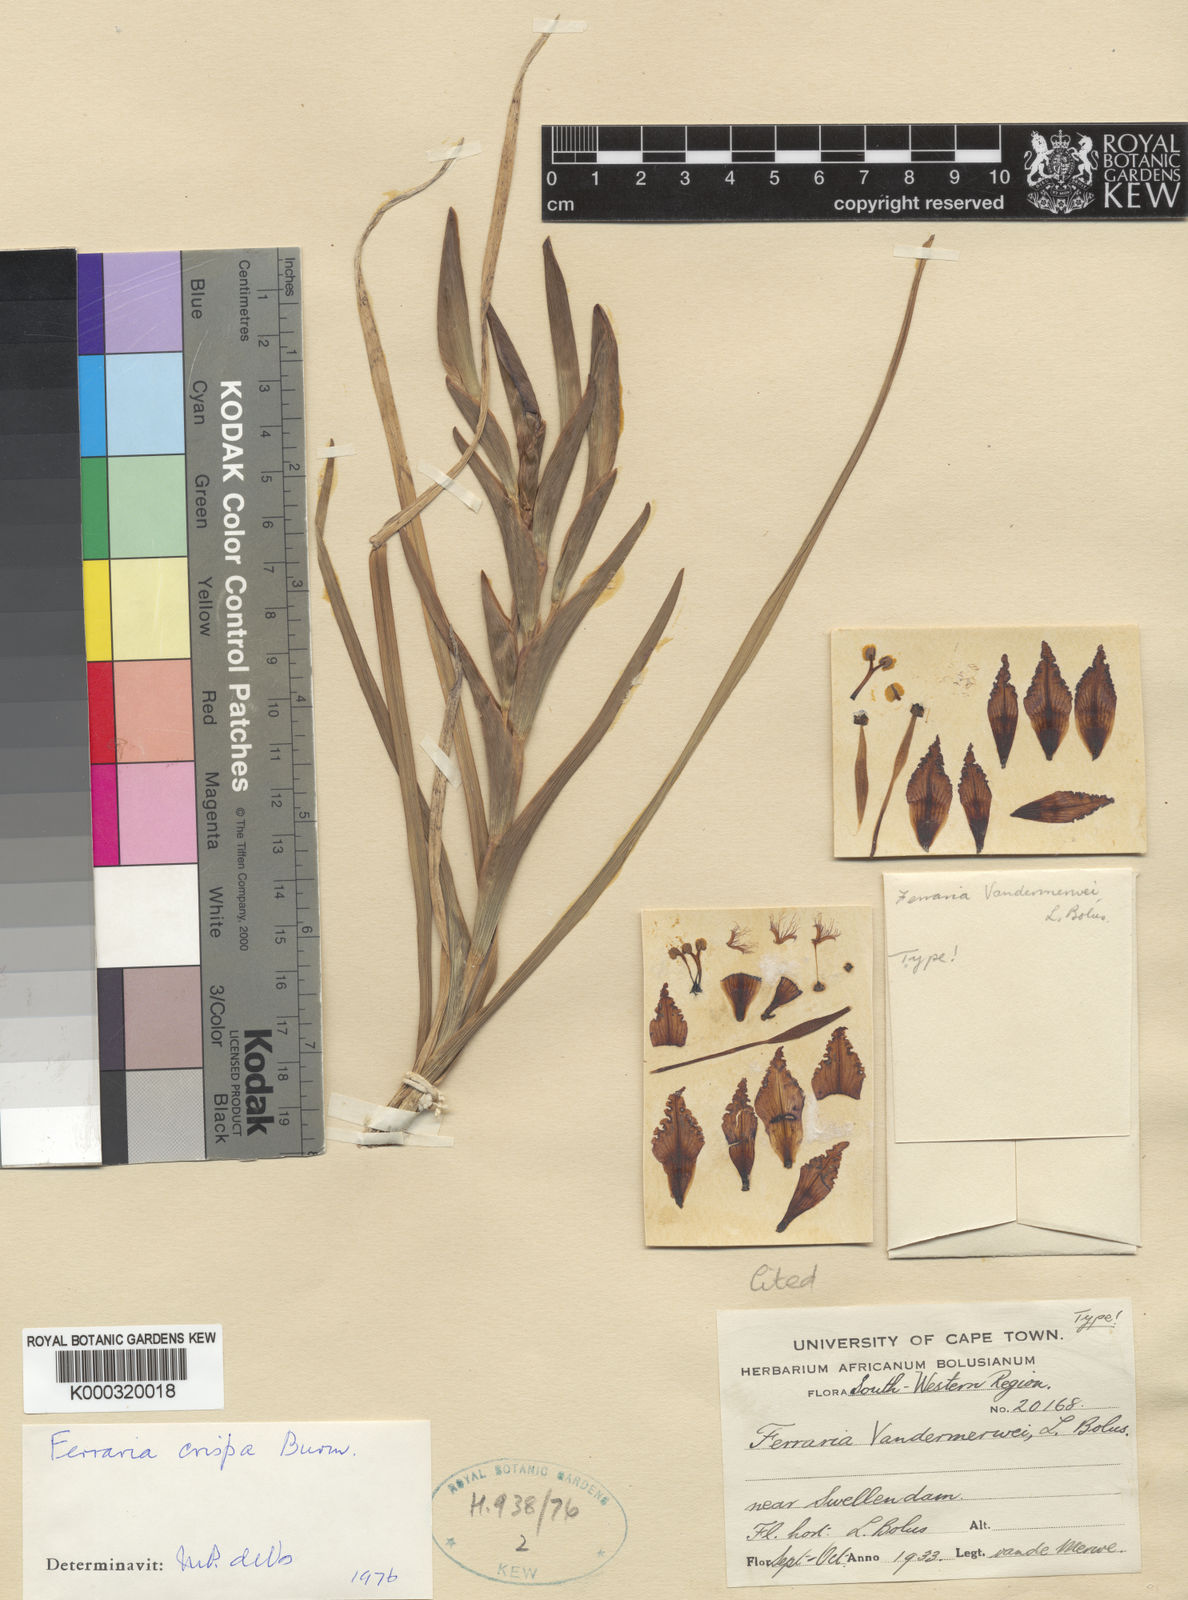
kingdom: Plantae
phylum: Tracheophyta
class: Liliopsida
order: Asparagales
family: Iridaceae
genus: Ferraria
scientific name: Ferraria crispa
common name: Black-flag
